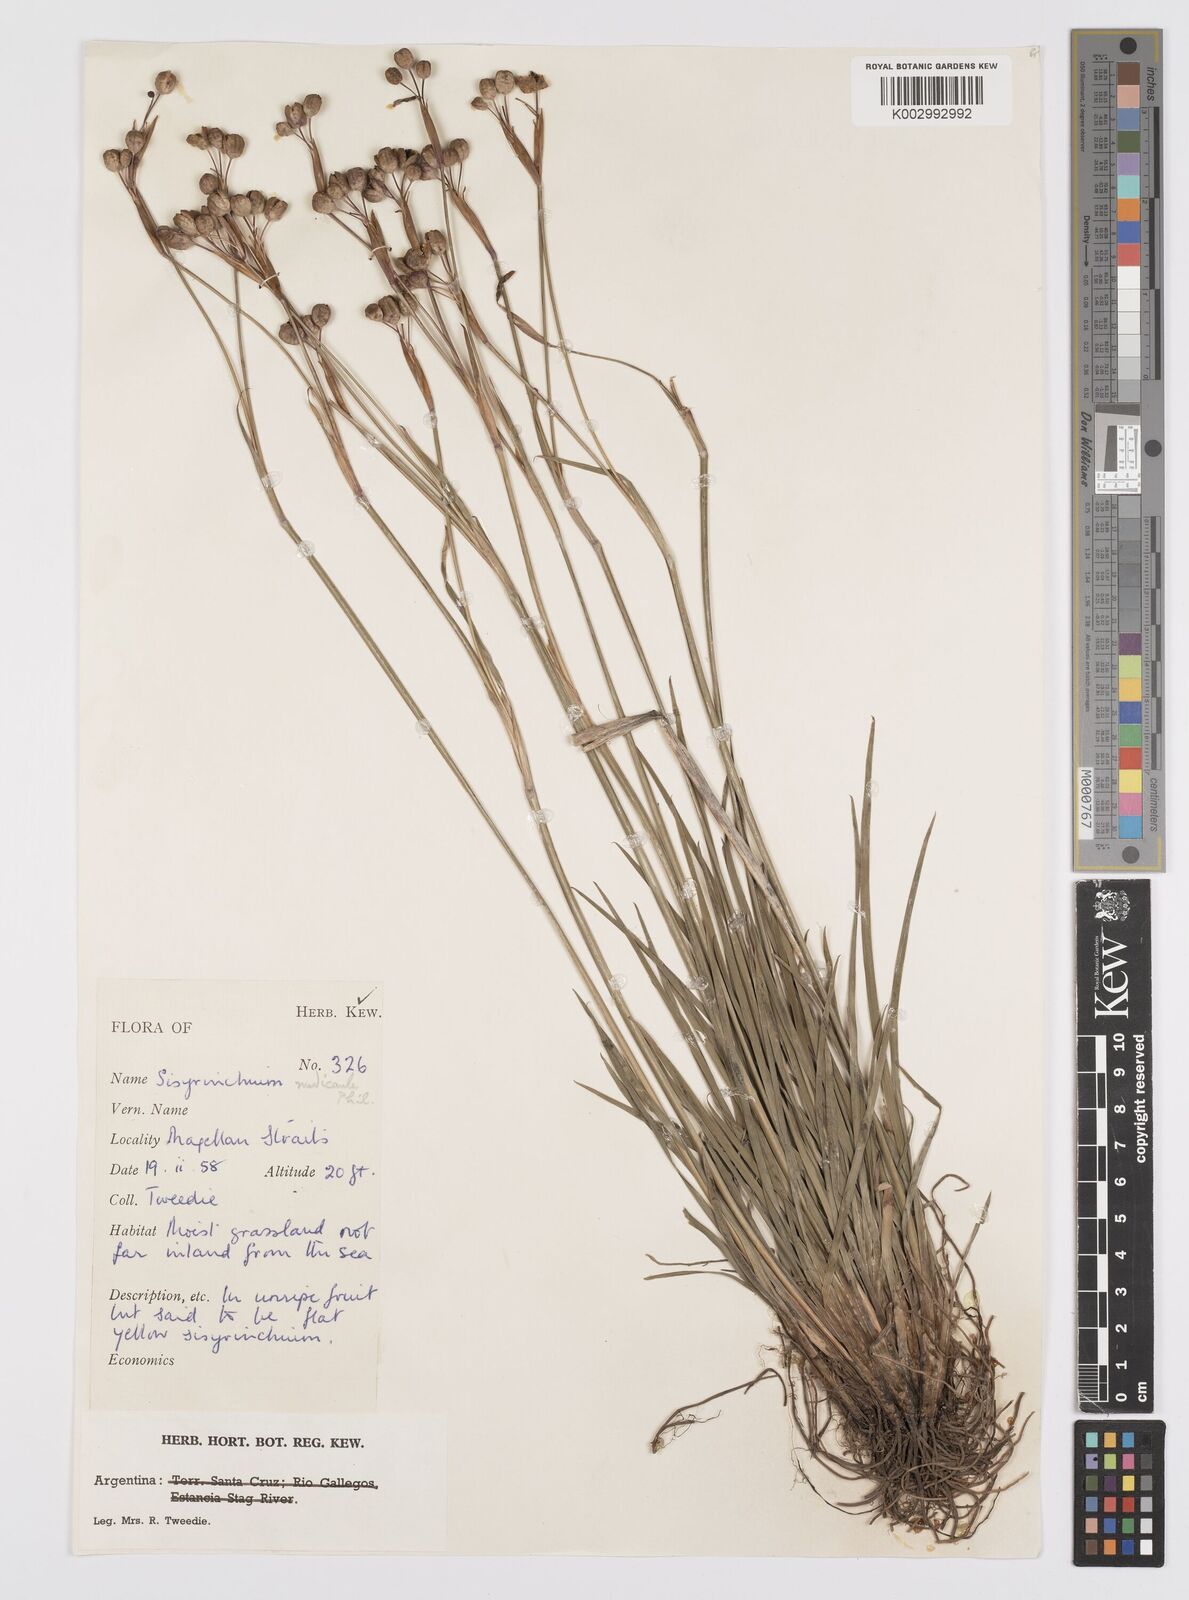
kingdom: Plantae
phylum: Tracheophyta
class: Liliopsida
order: Asparagales
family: Iridaceae
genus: Sisyrinchium
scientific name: Sisyrinchium patagonicum
